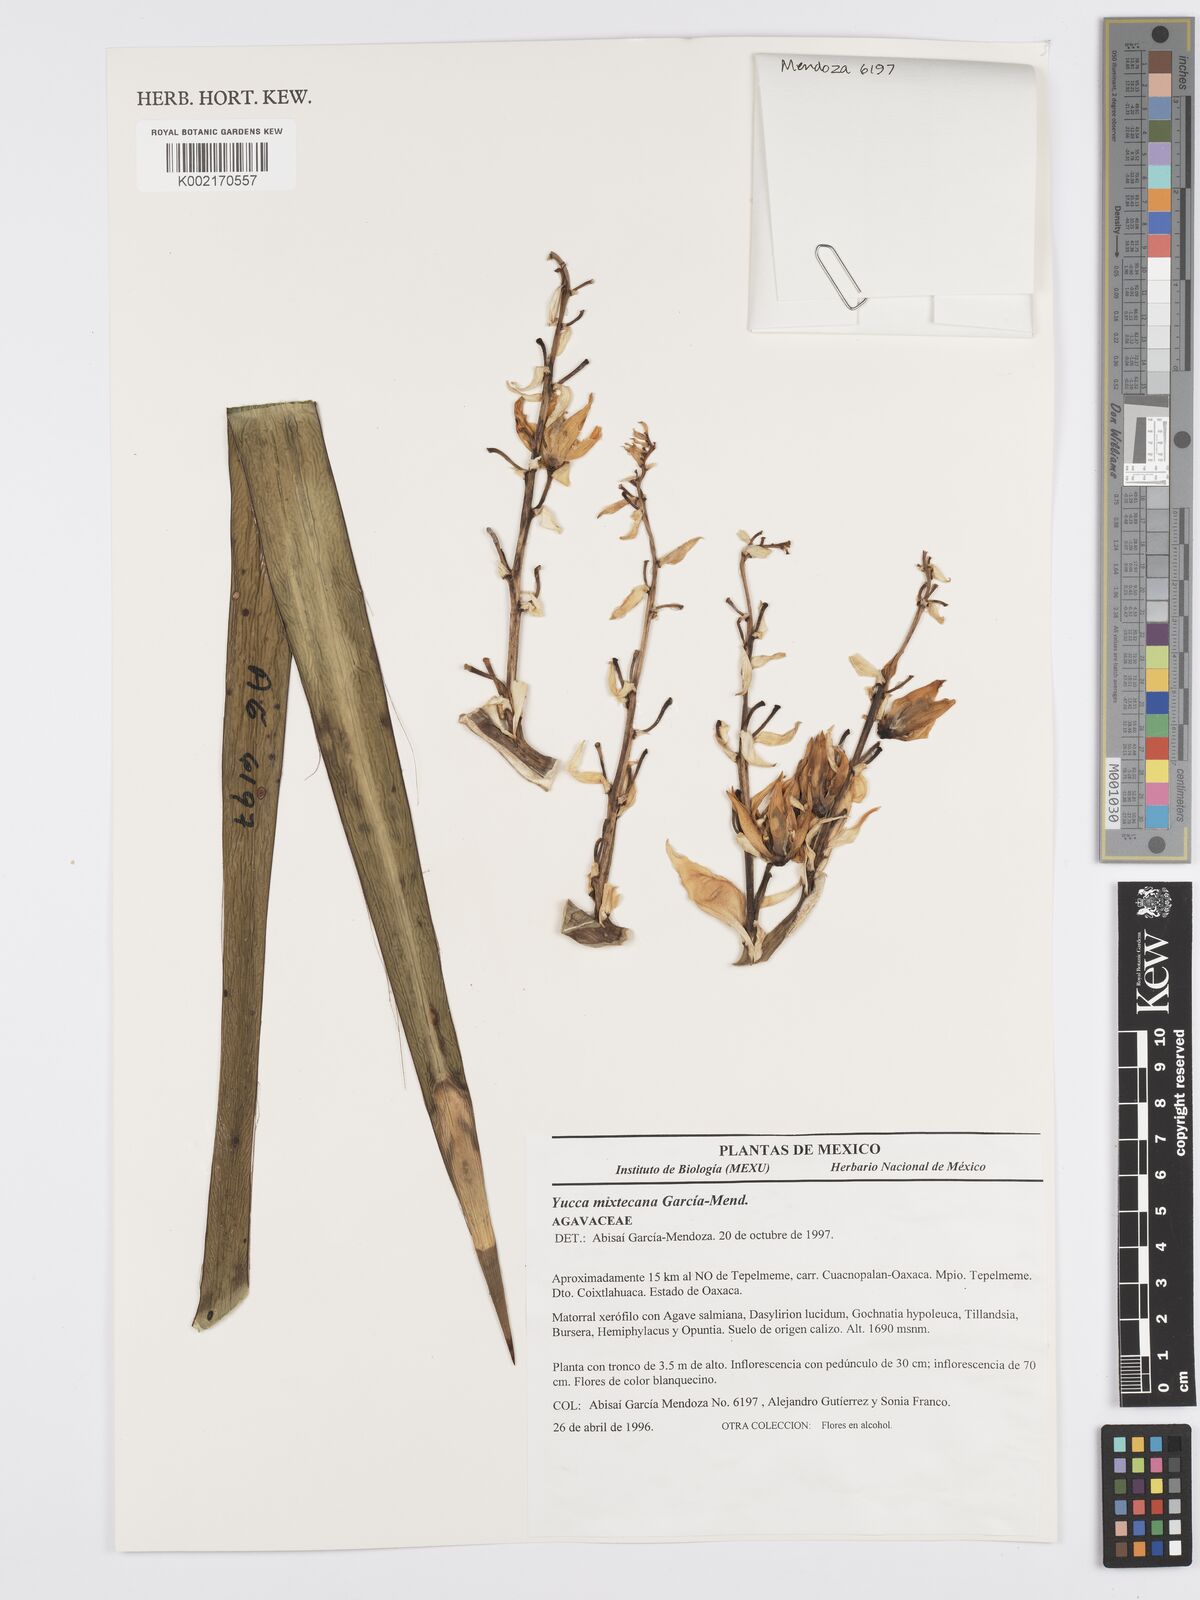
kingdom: Plantae
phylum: Tracheophyta
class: Liliopsida
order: Asparagales
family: Asparagaceae
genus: Yucca
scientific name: Yucca mixtecana
